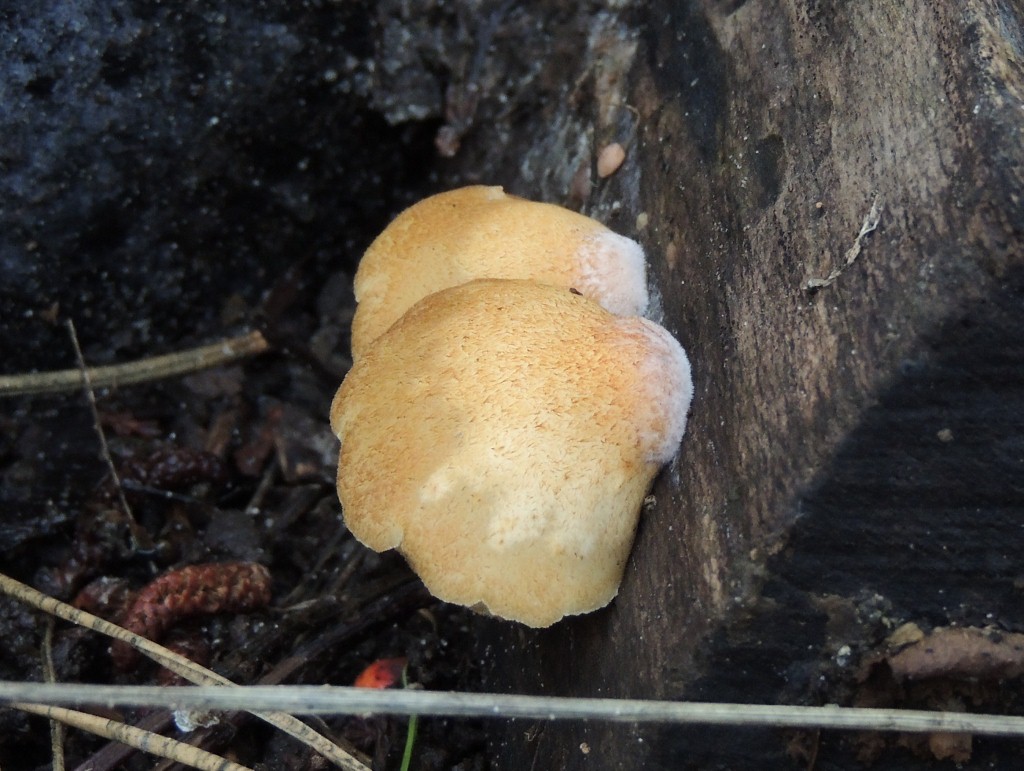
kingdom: Fungi
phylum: Basidiomycota
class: Agaricomycetes
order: Agaricales
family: Crepidotaceae
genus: Crepidotus
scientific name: Crepidotus calolepis
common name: småskællet muslingesvamp
